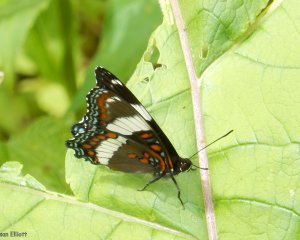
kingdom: Animalia
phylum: Arthropoda
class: Insecta
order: Lepidoptera
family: Nymphalidae
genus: Limenitis
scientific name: Limenitis arthemis
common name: Red-spotted Admiral
